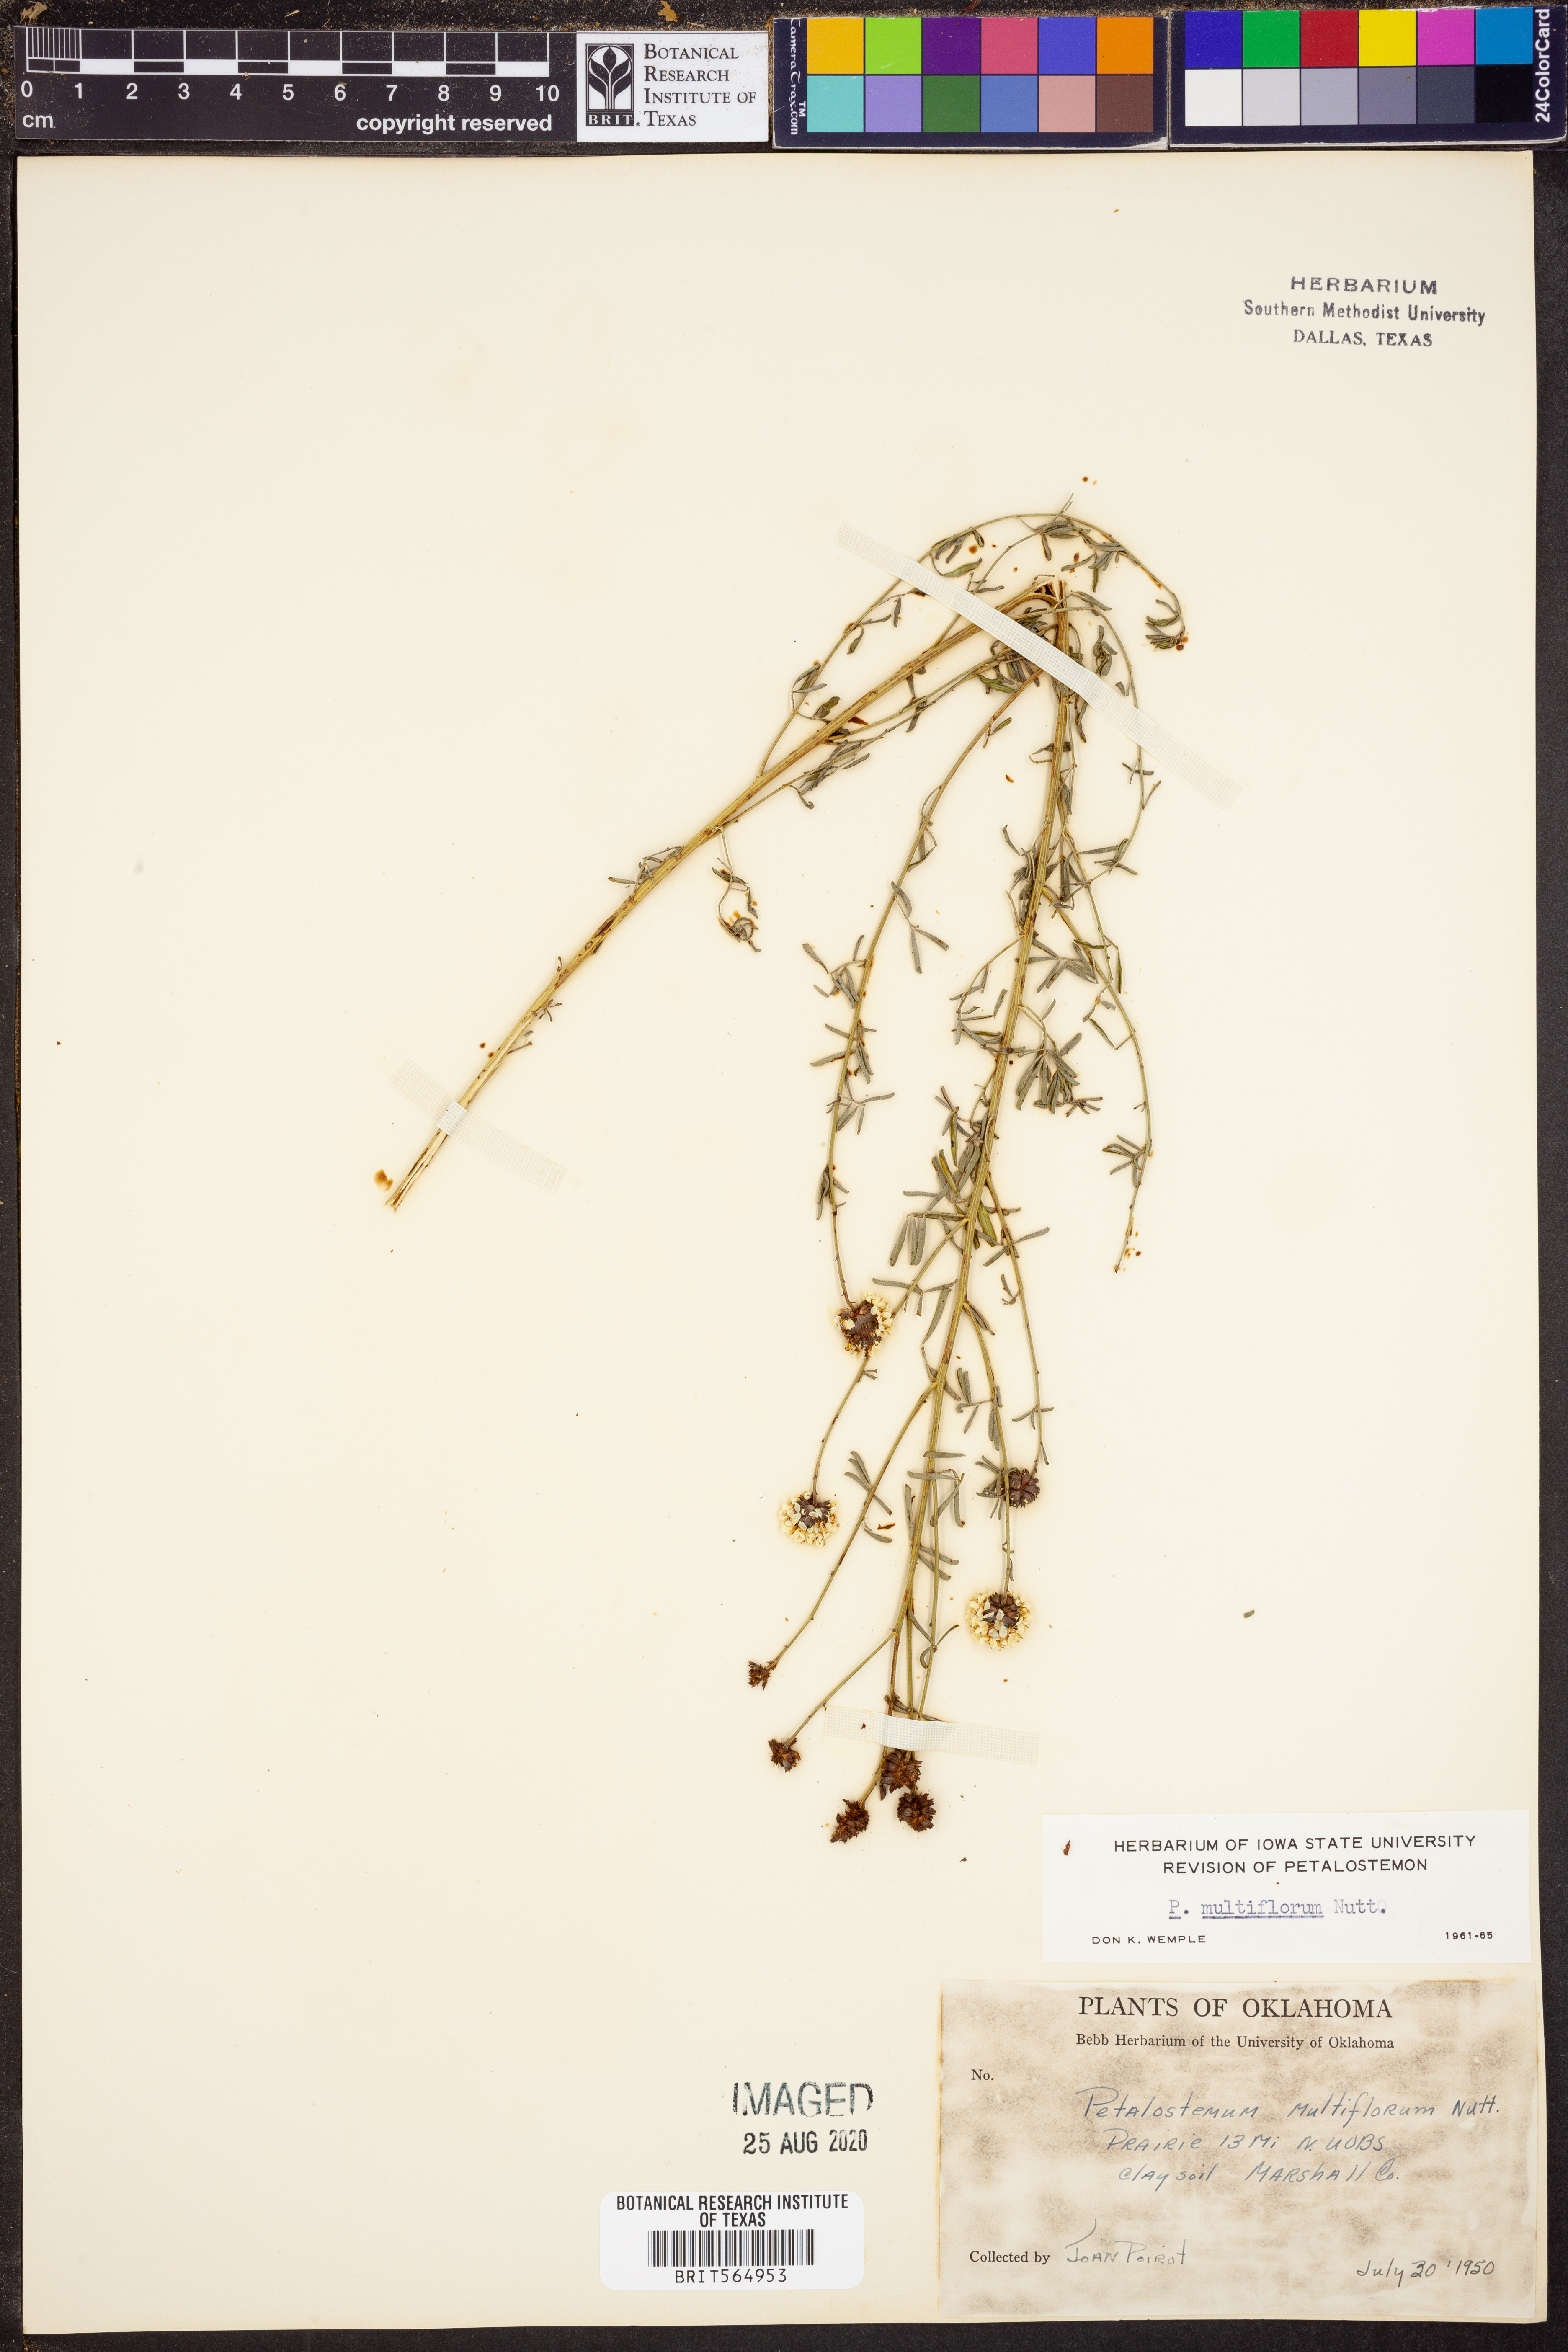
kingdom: Plantae
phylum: Tracheophyta
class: Magnoliopsida
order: Fabales
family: Fabaceae
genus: Dalea
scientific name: Dalea multiflora
